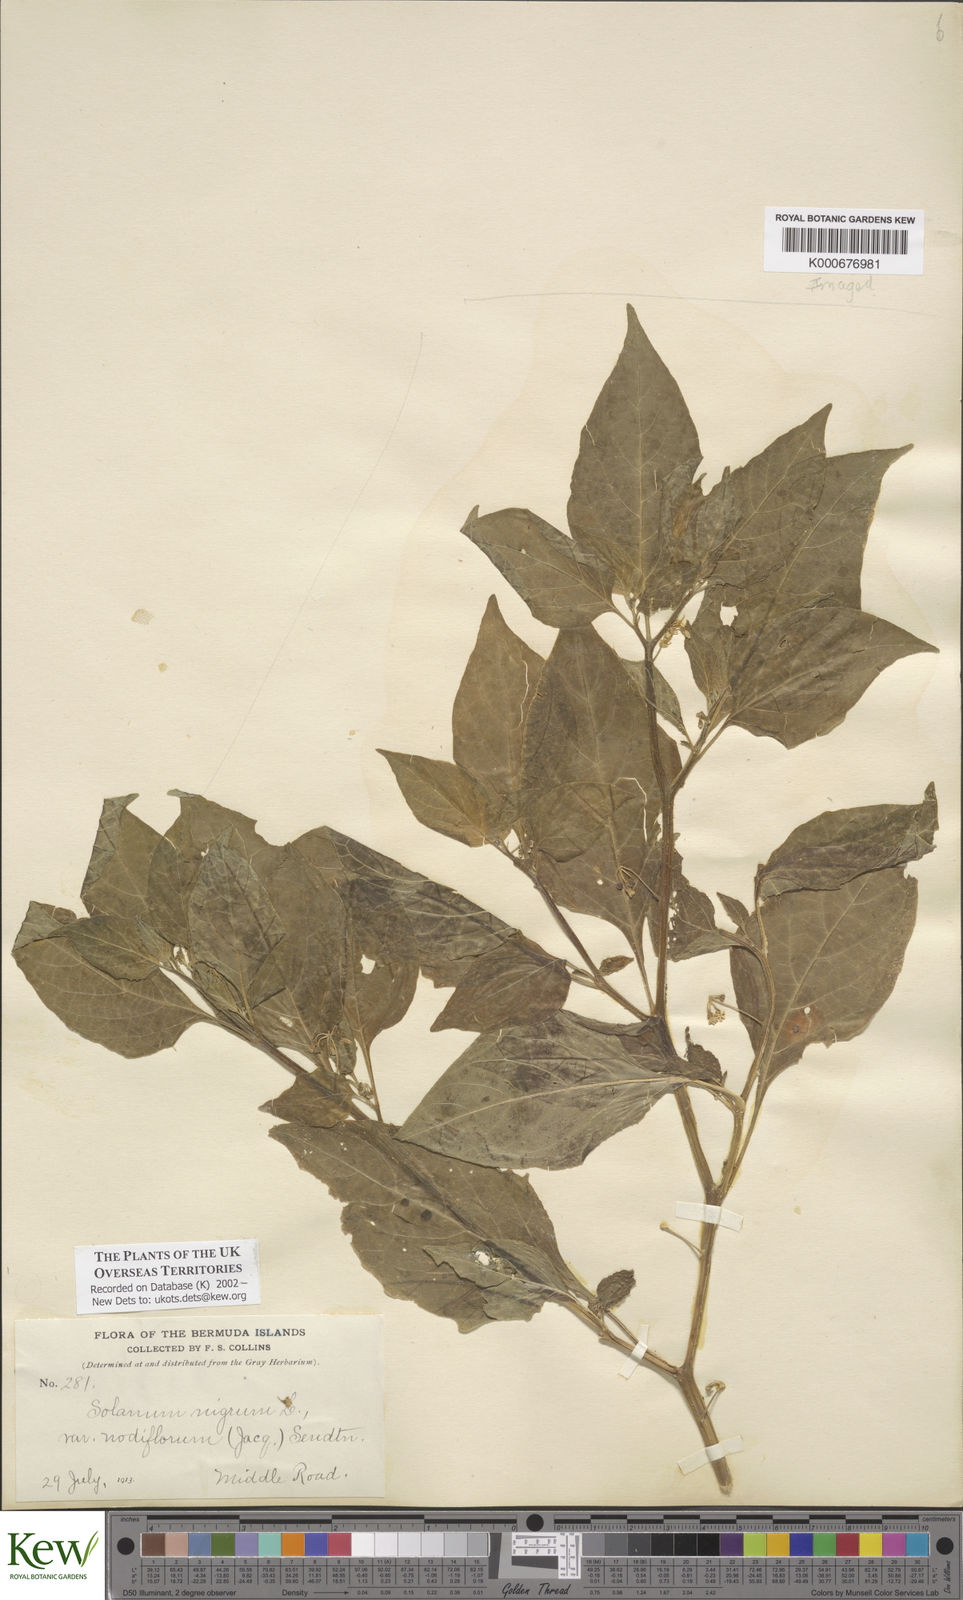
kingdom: Plantae
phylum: Tracheophyta
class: Magnoliopsida
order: Solanales
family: Solanaceae
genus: Solanum
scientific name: Solanum americanum
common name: American black nightshade
